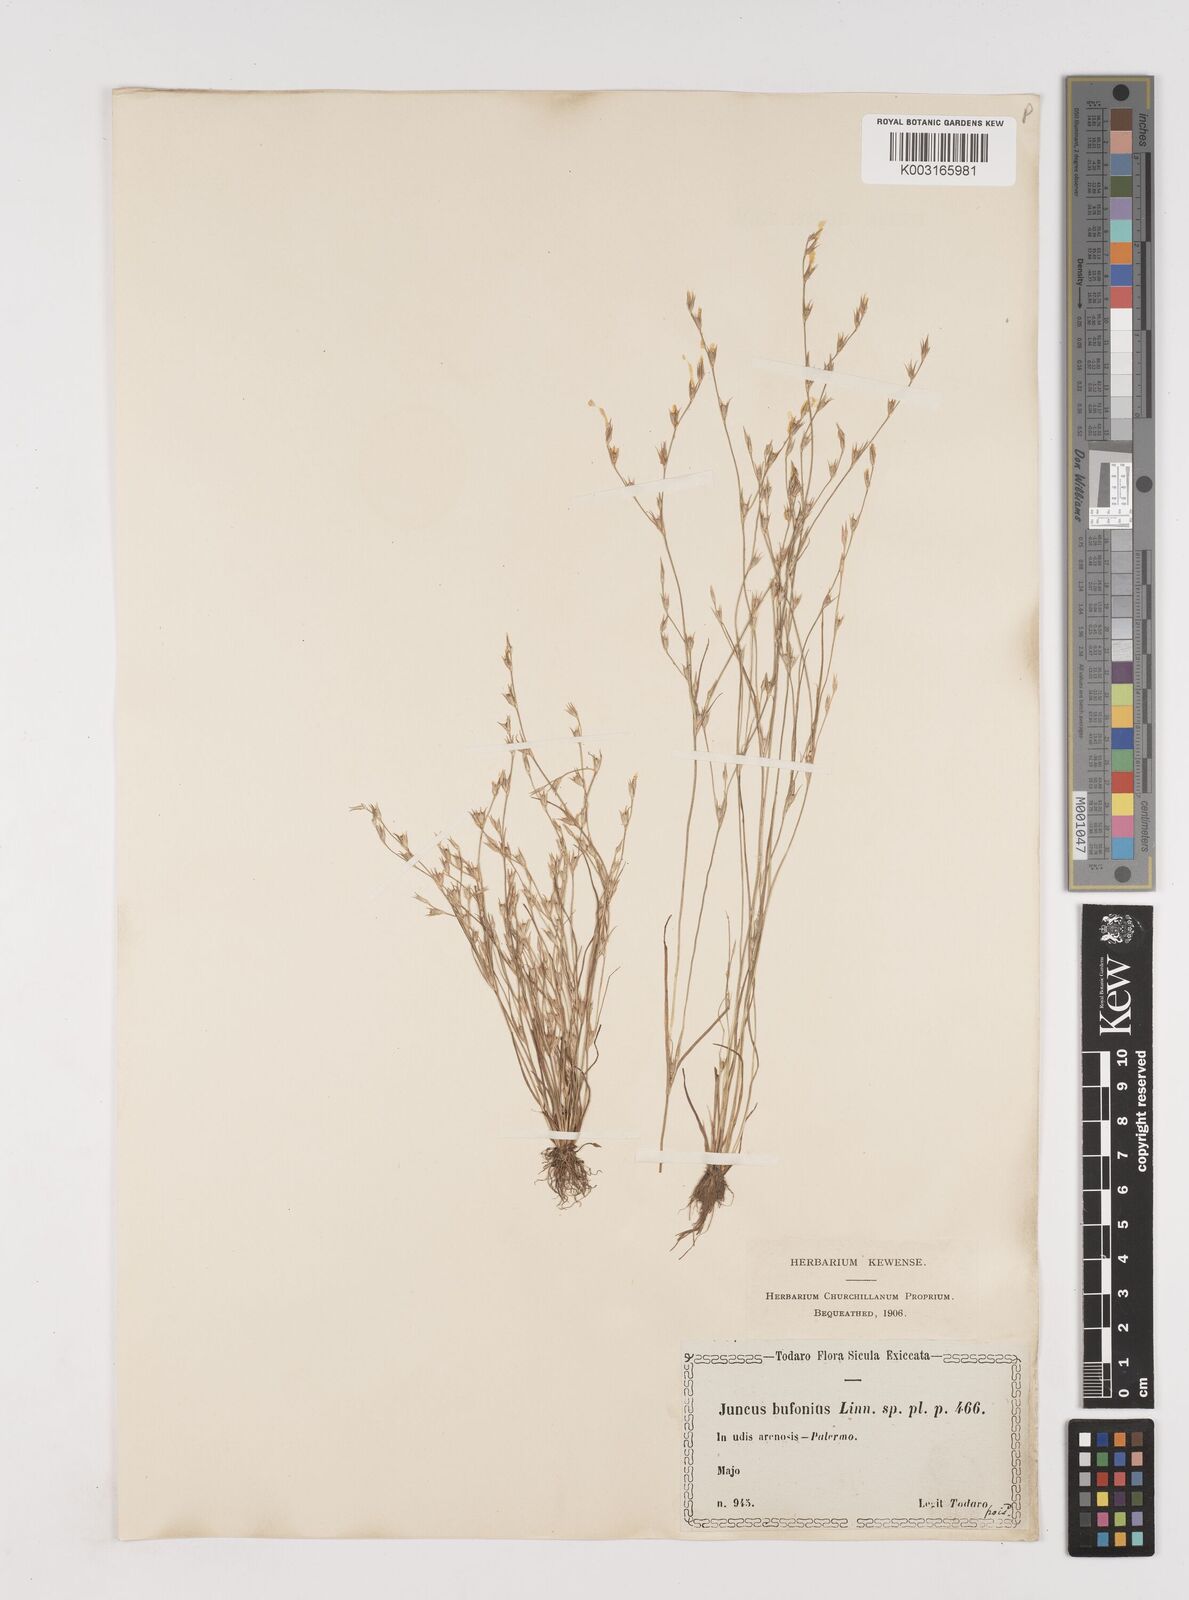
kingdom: Plantae
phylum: Tracheophyta
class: Liliopsida
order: Poales
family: Juncaceae
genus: Juncus
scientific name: Juncus bufonius
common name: Toad rush
